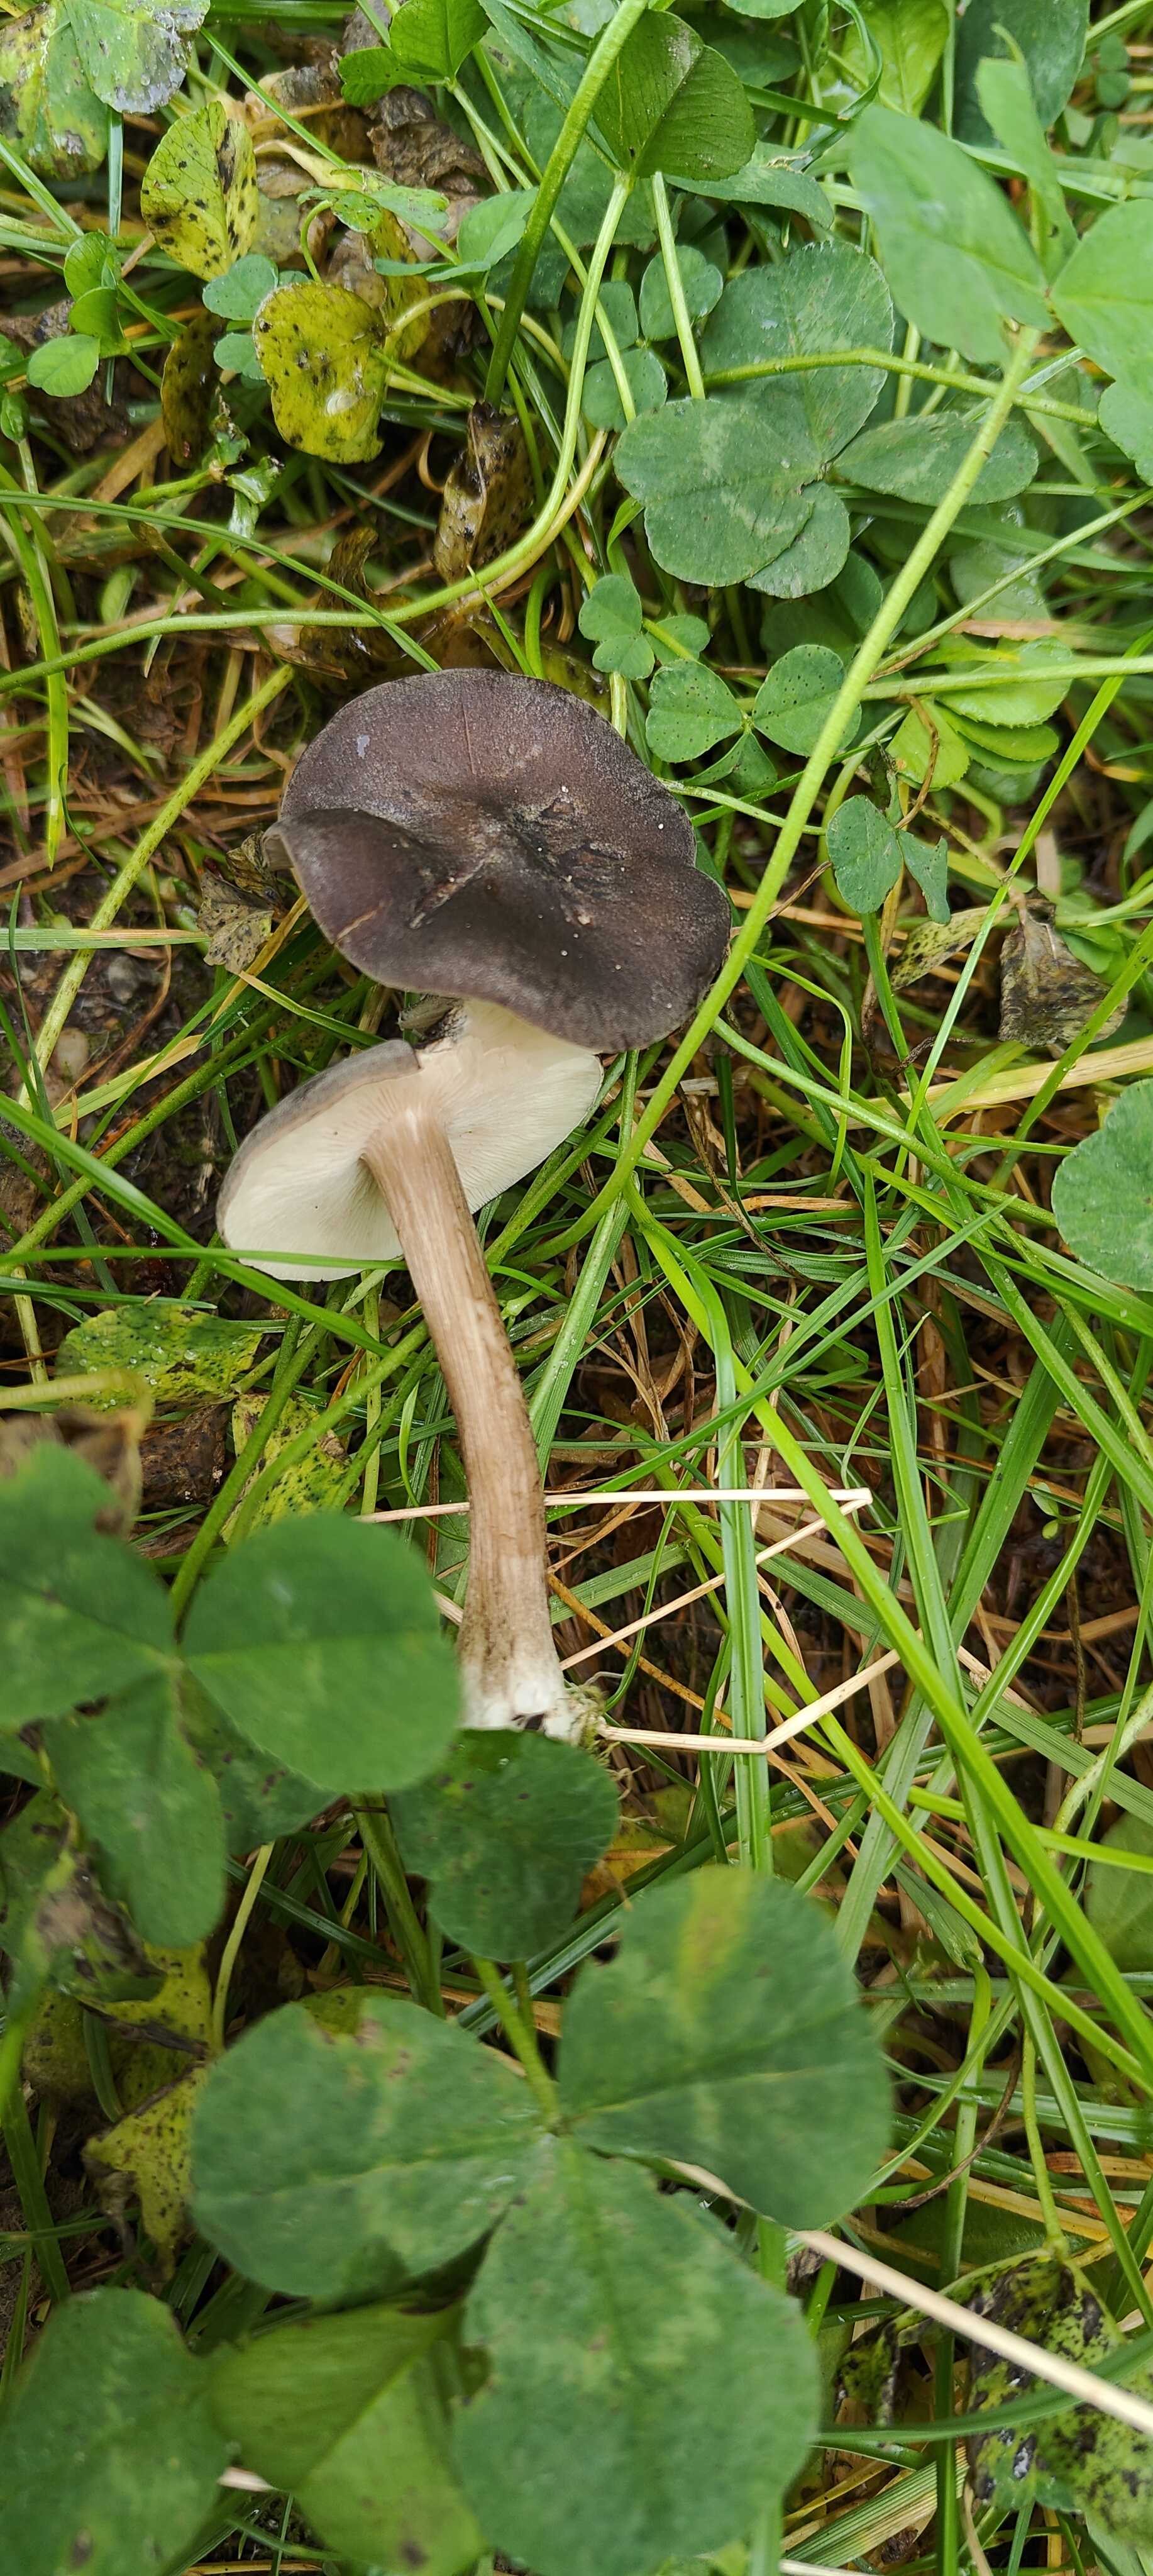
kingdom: Fungi
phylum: Basidiomycota
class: Agaricomycetes
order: Agaricales
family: Tricholomataceae
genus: Melanoleuca
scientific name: Melanoleuca
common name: munkehat
